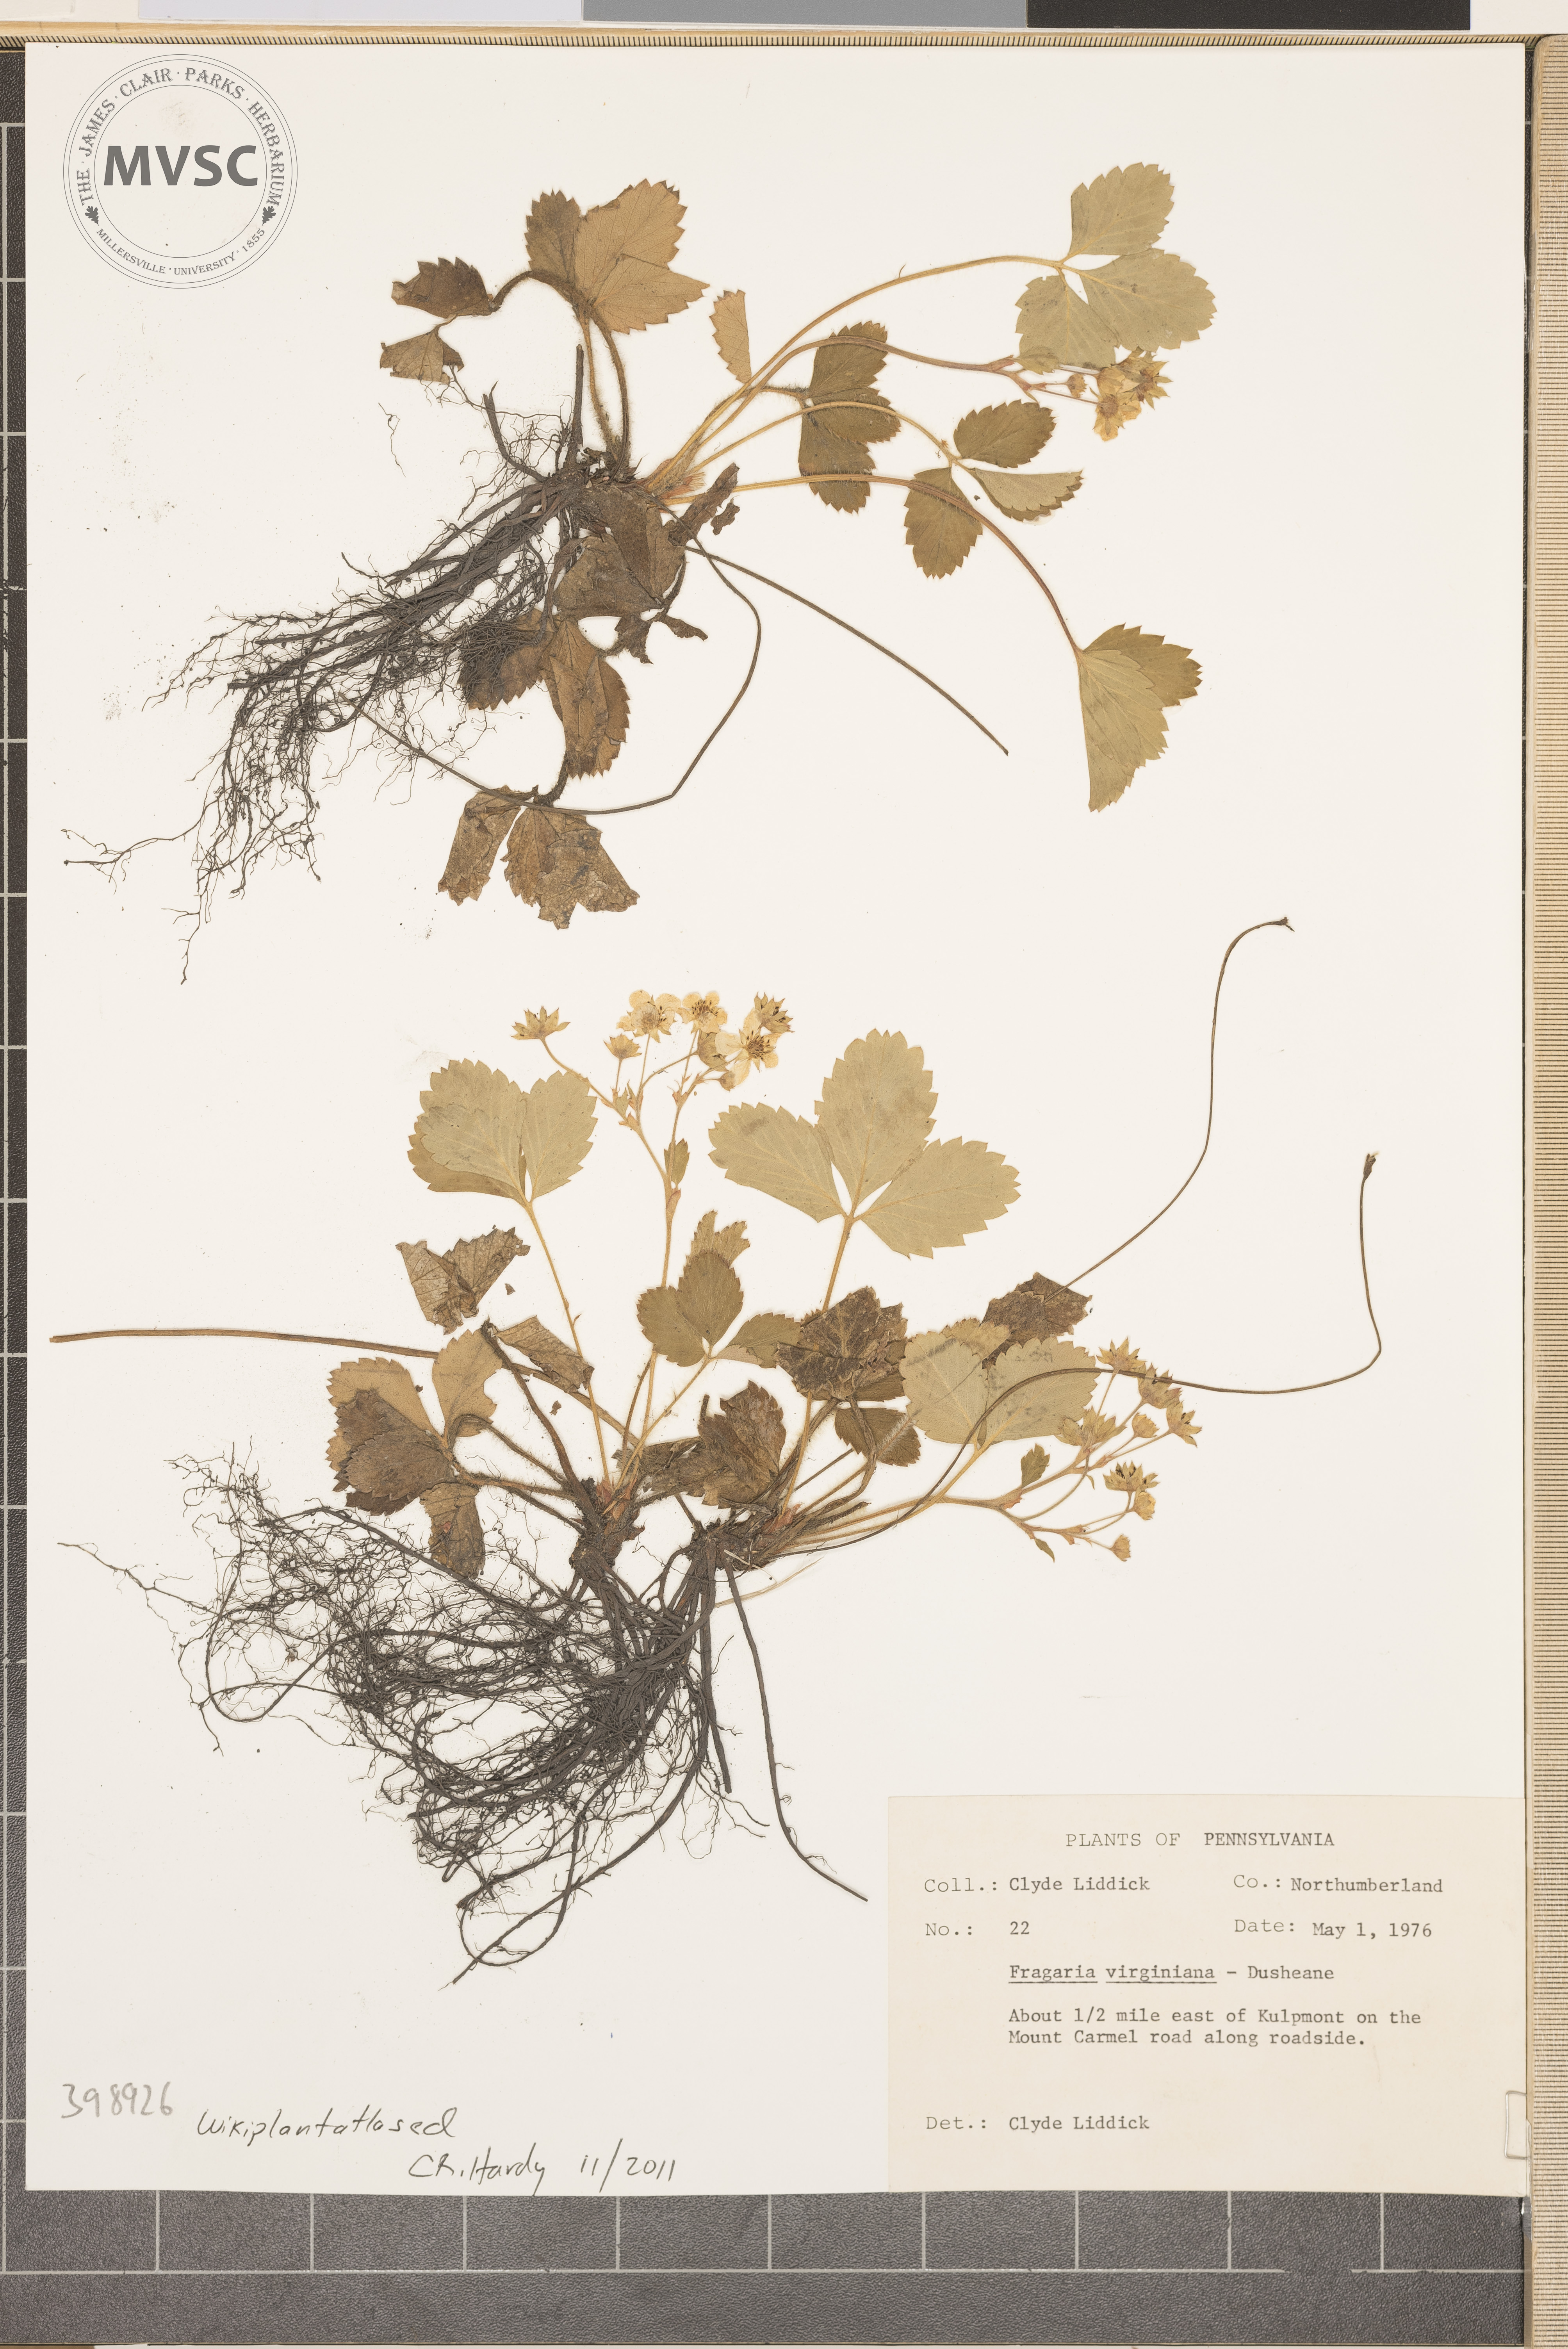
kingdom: Plantae
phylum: Tracheophyta
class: Magnoliopsida
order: Rosales
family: Rosaceae
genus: Fragaria
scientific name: Fragaria virginiana
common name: Wild strawberry
